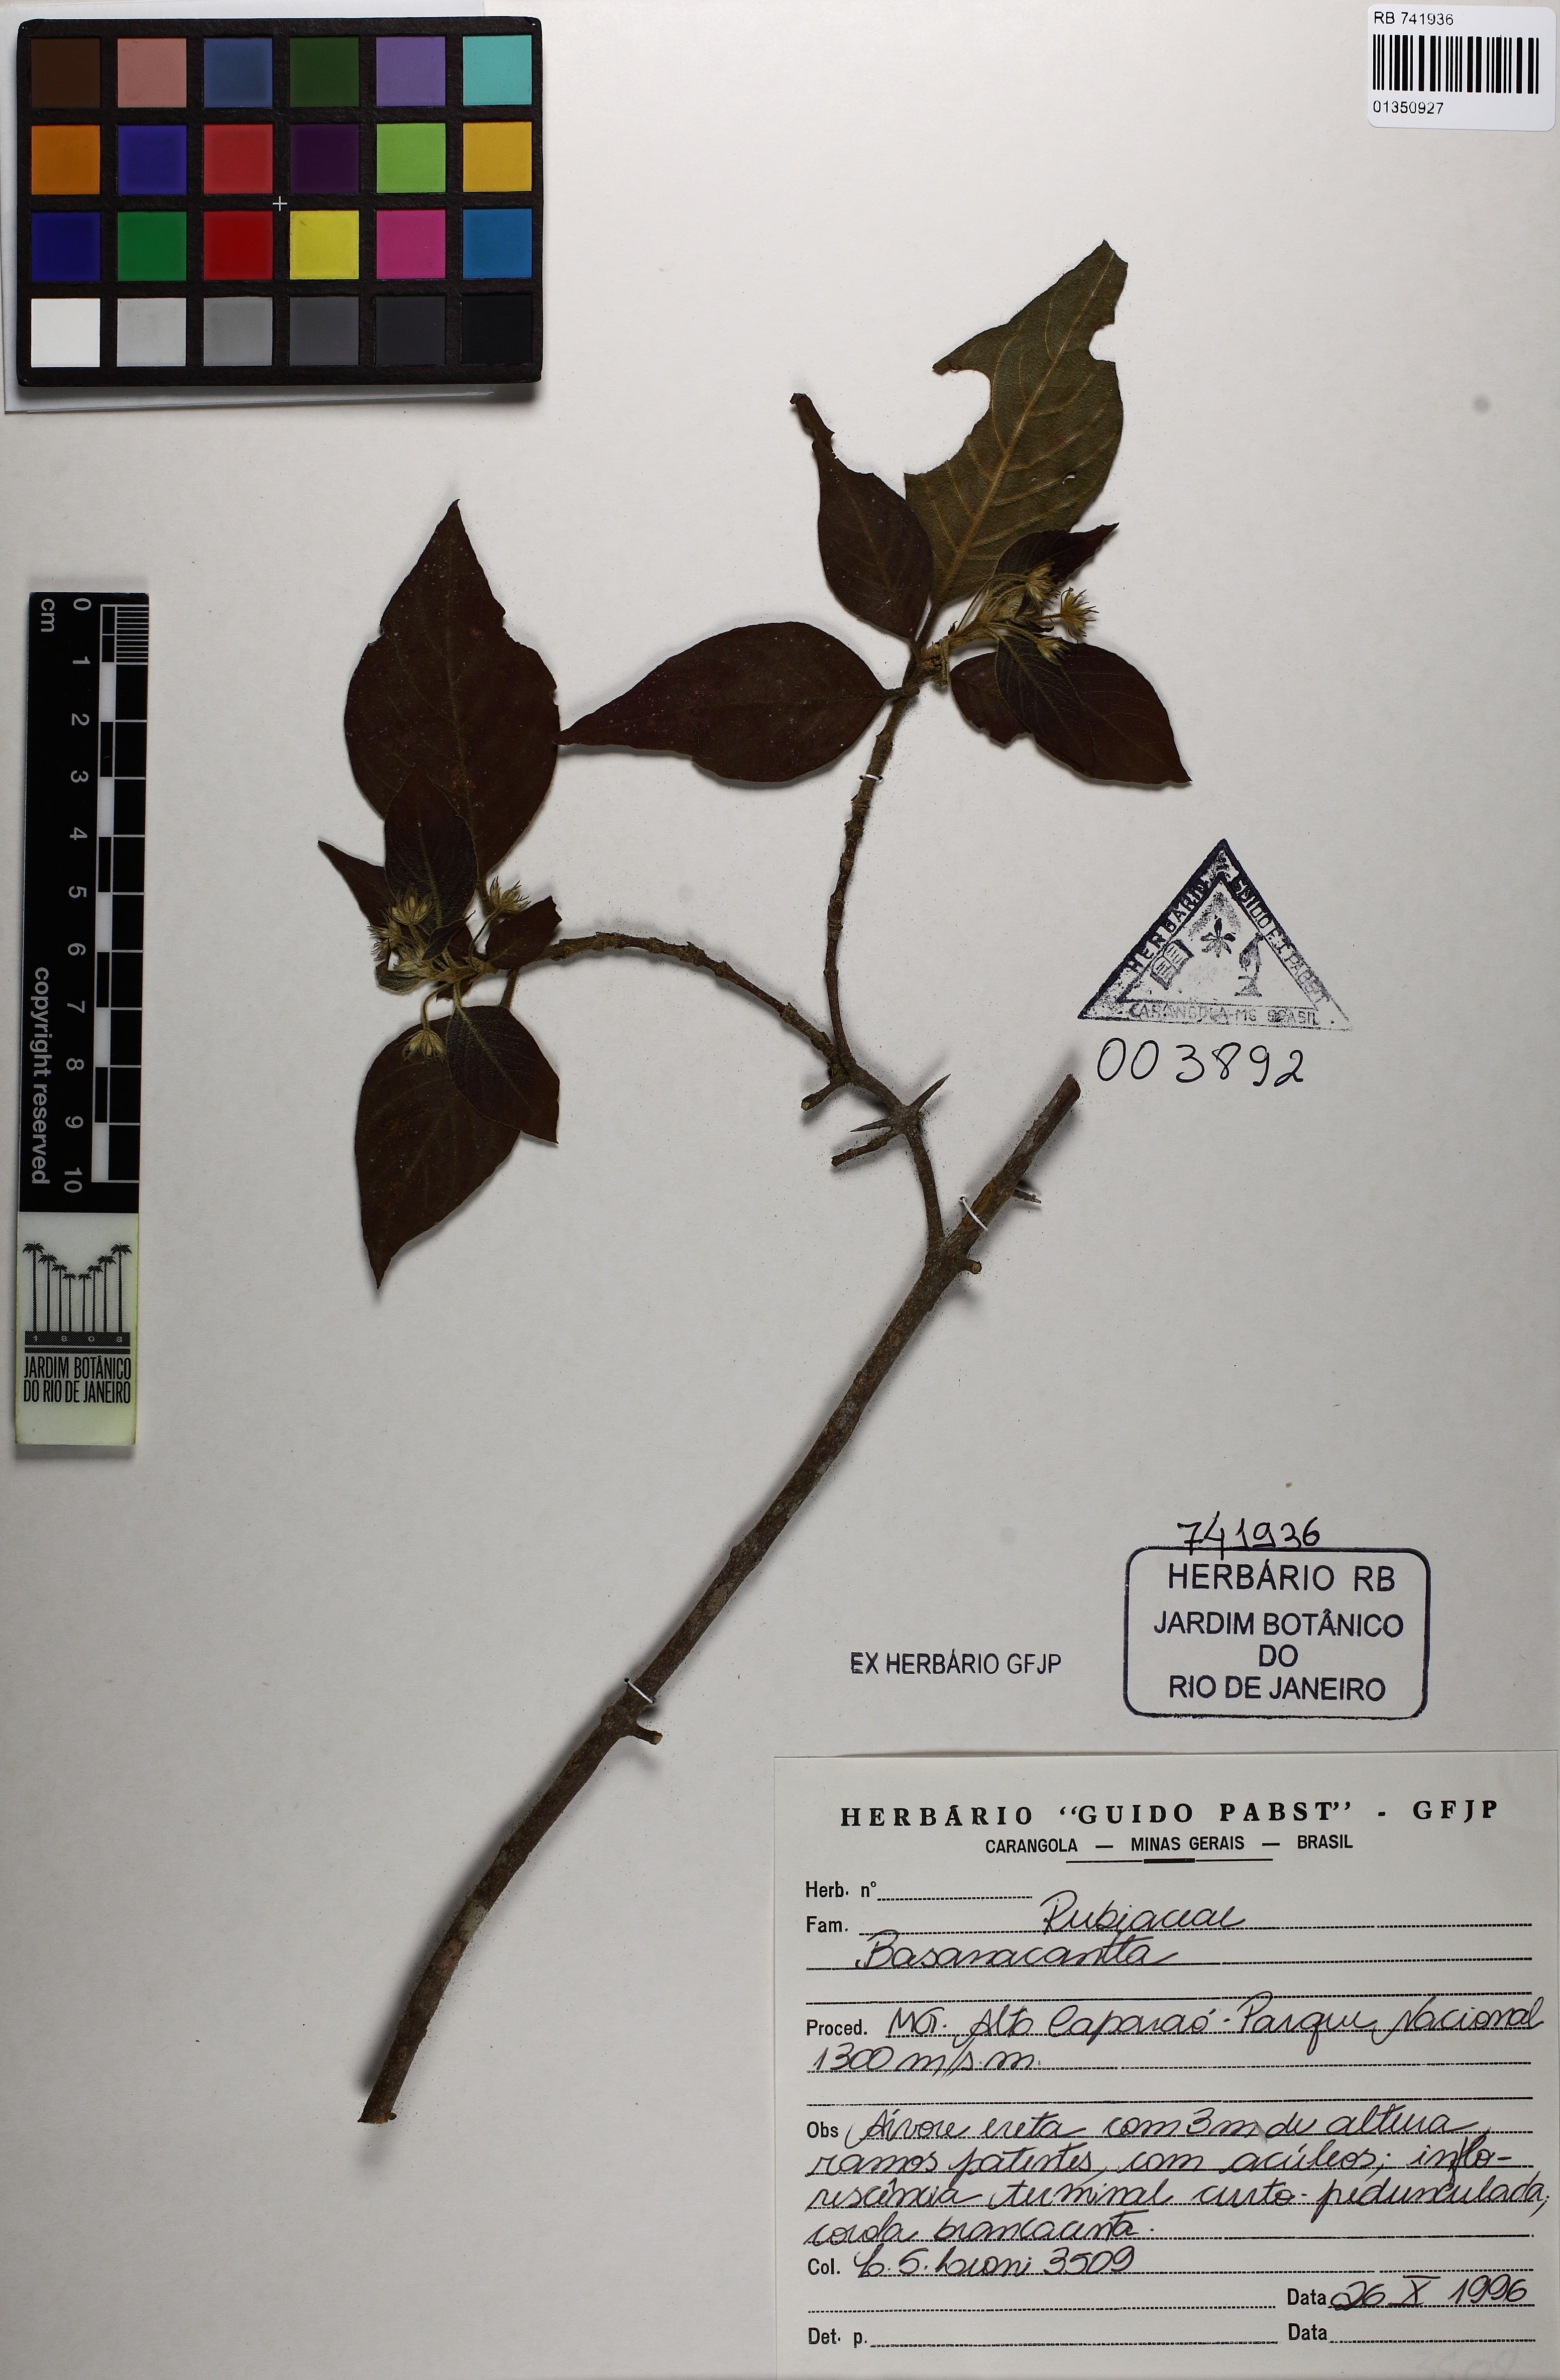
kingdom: Plantae
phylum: Tracheophyta
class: Magnoliopsida
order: Gentianales
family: Rubiaceae
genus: Chomelia
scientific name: Chomelia tristis
